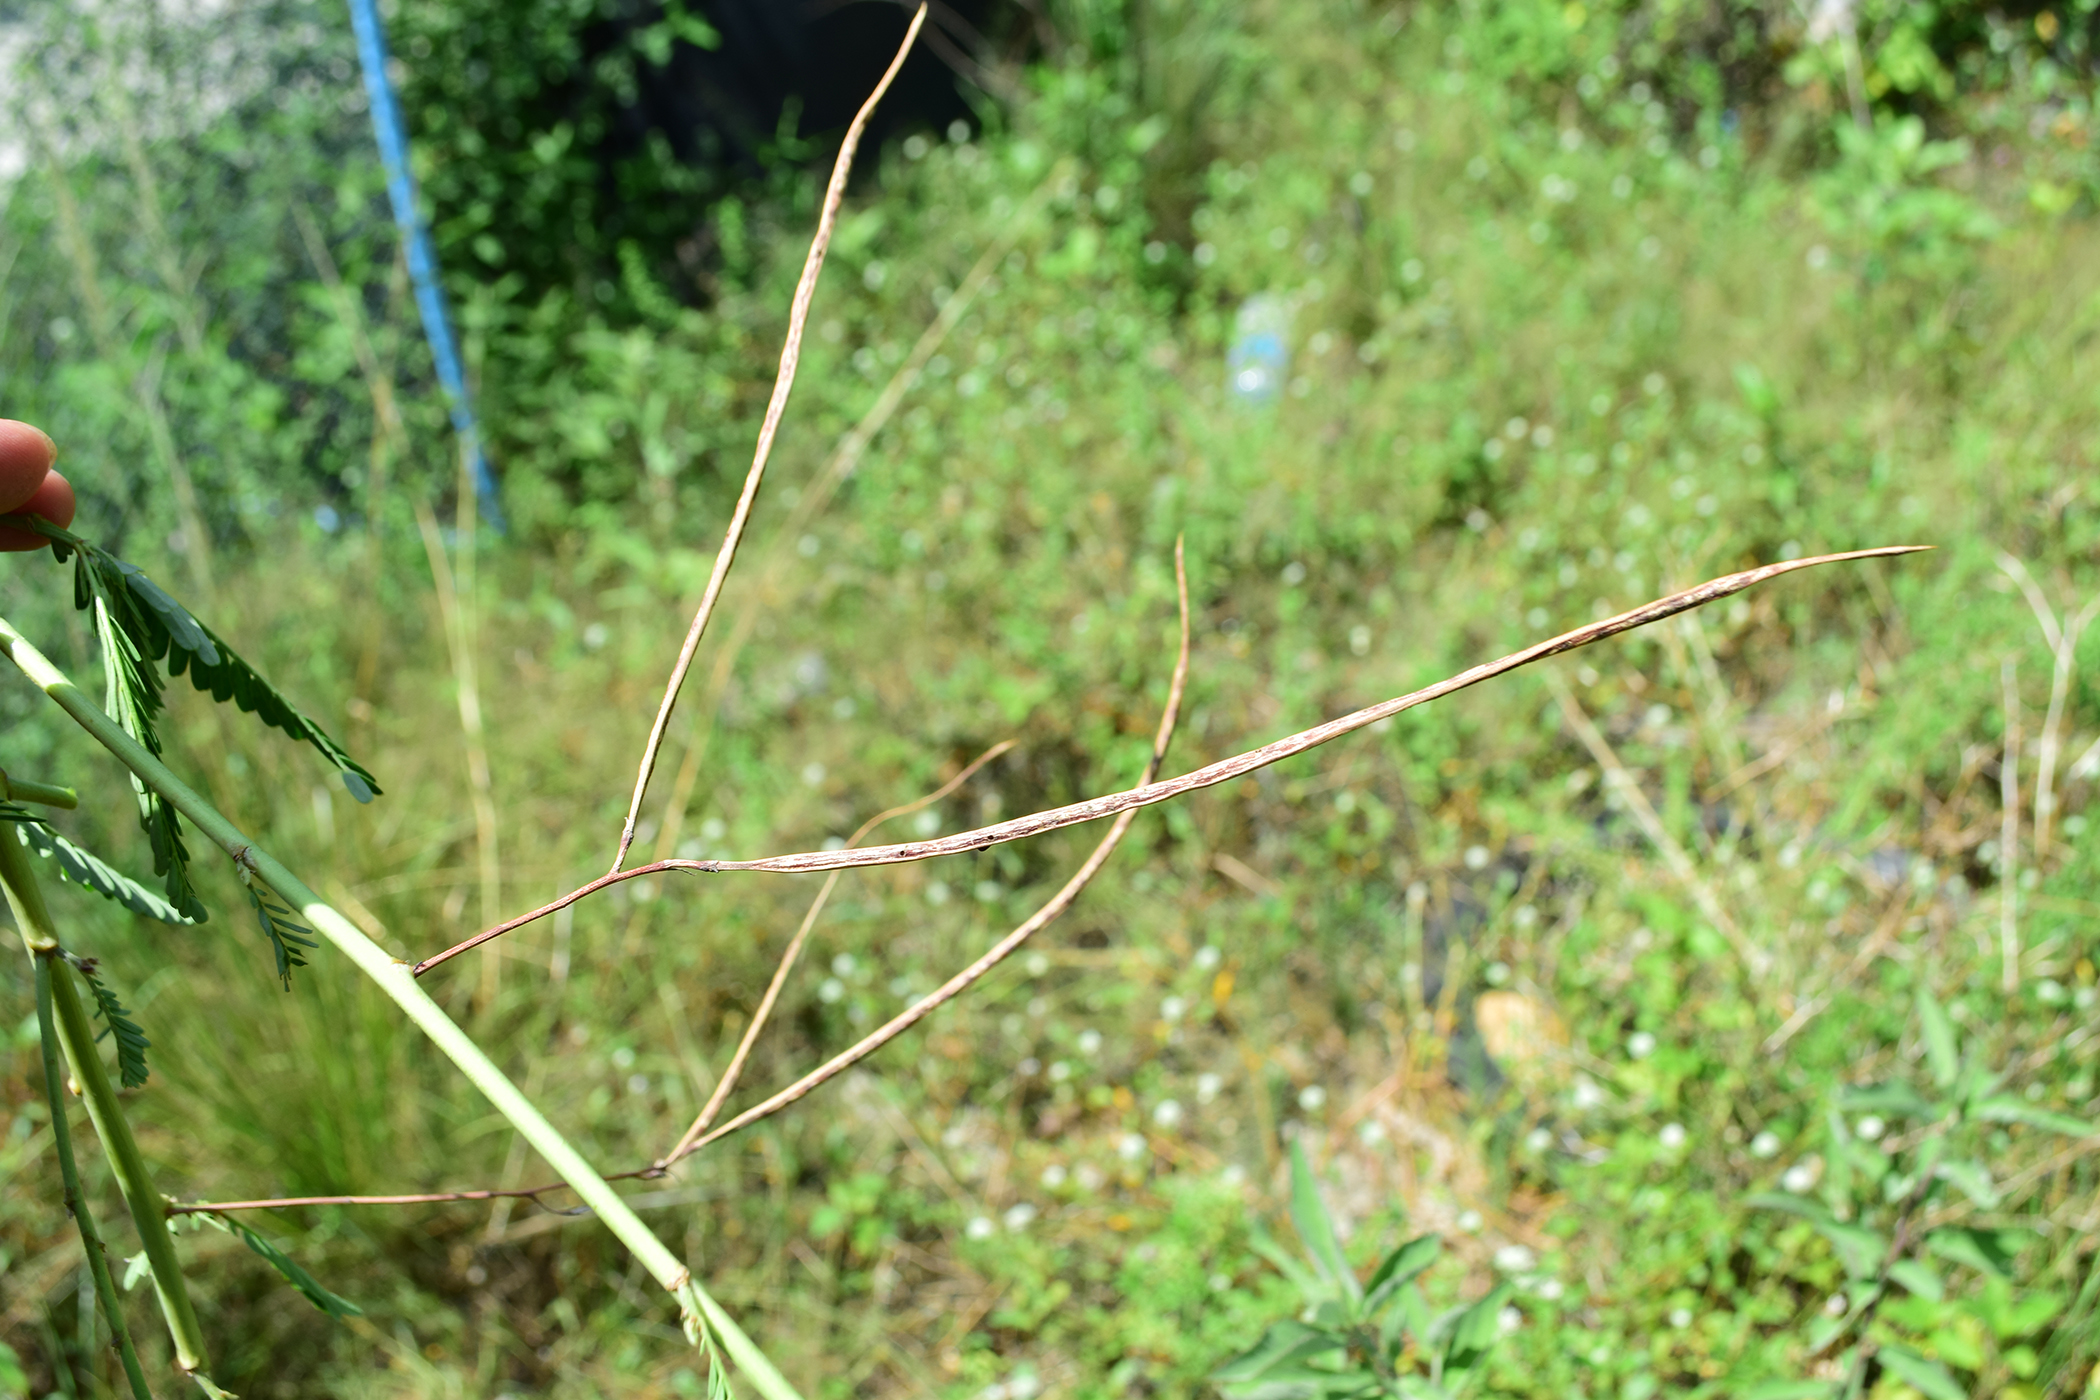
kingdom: Plantae
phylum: Tracheophyta
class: Magnoliopsida
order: Fabales
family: Fabaceae
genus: Sesbania
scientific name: Sesbania bispinosa
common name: Sesbania pea
